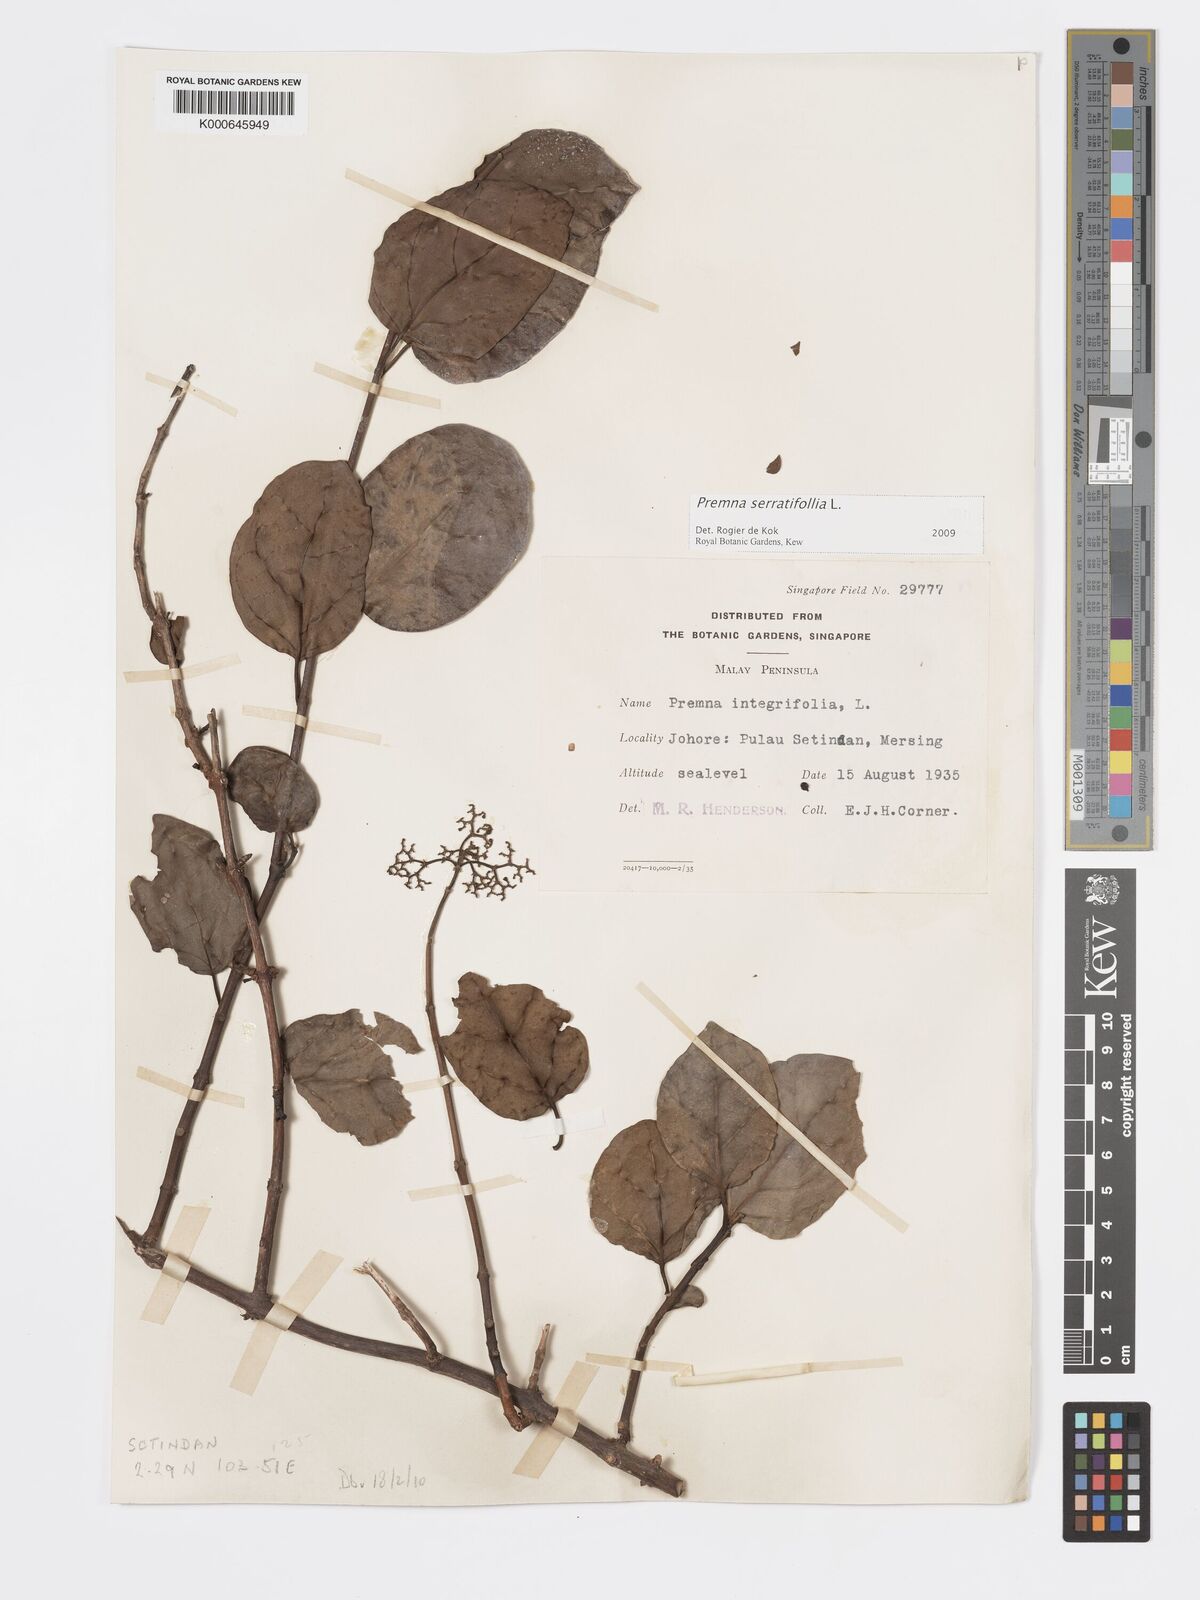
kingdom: Plantae
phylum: Tracheophyta
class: Magnoliopsida
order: Lamiales
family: Lamiaceae
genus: Premna
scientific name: Premna serratifolia
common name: Bastard guelder
